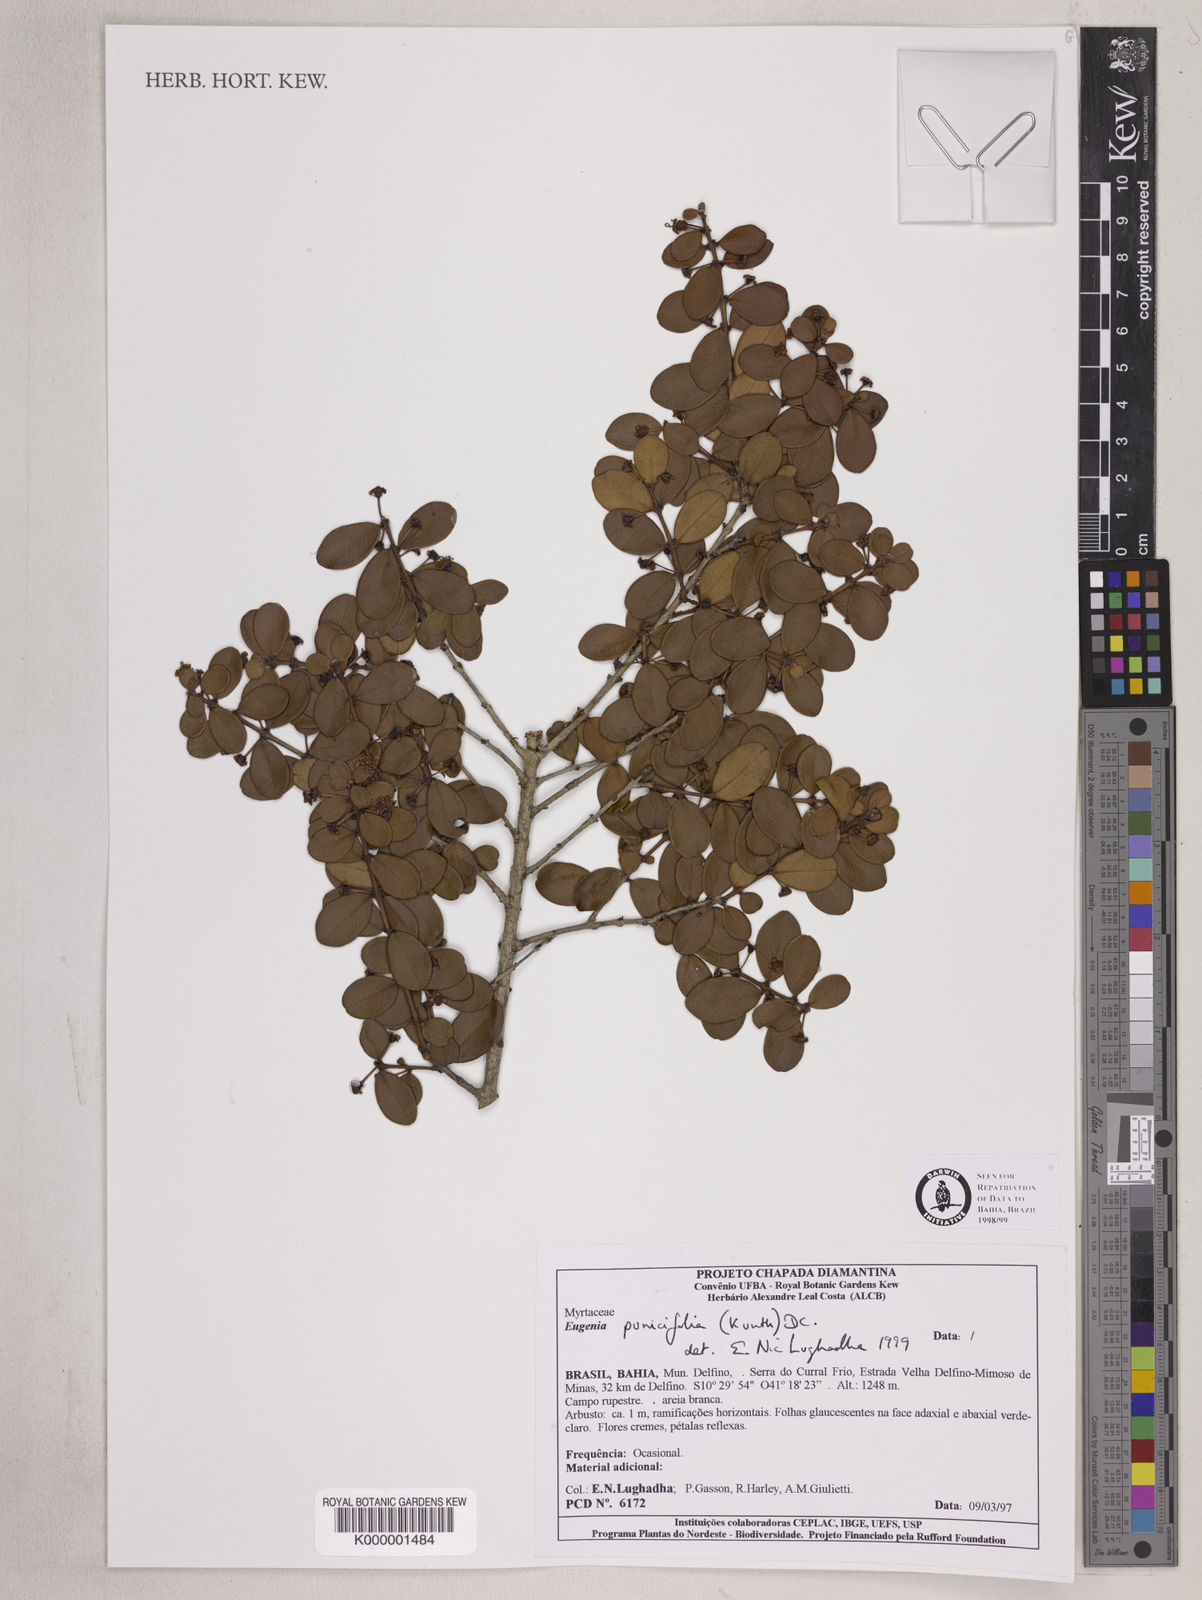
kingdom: Plantae
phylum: Tracheophyta
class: Magnoliopsida
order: Myrtales
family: Myrtaceae
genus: Eugenia
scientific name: Eugenia punicifolia
